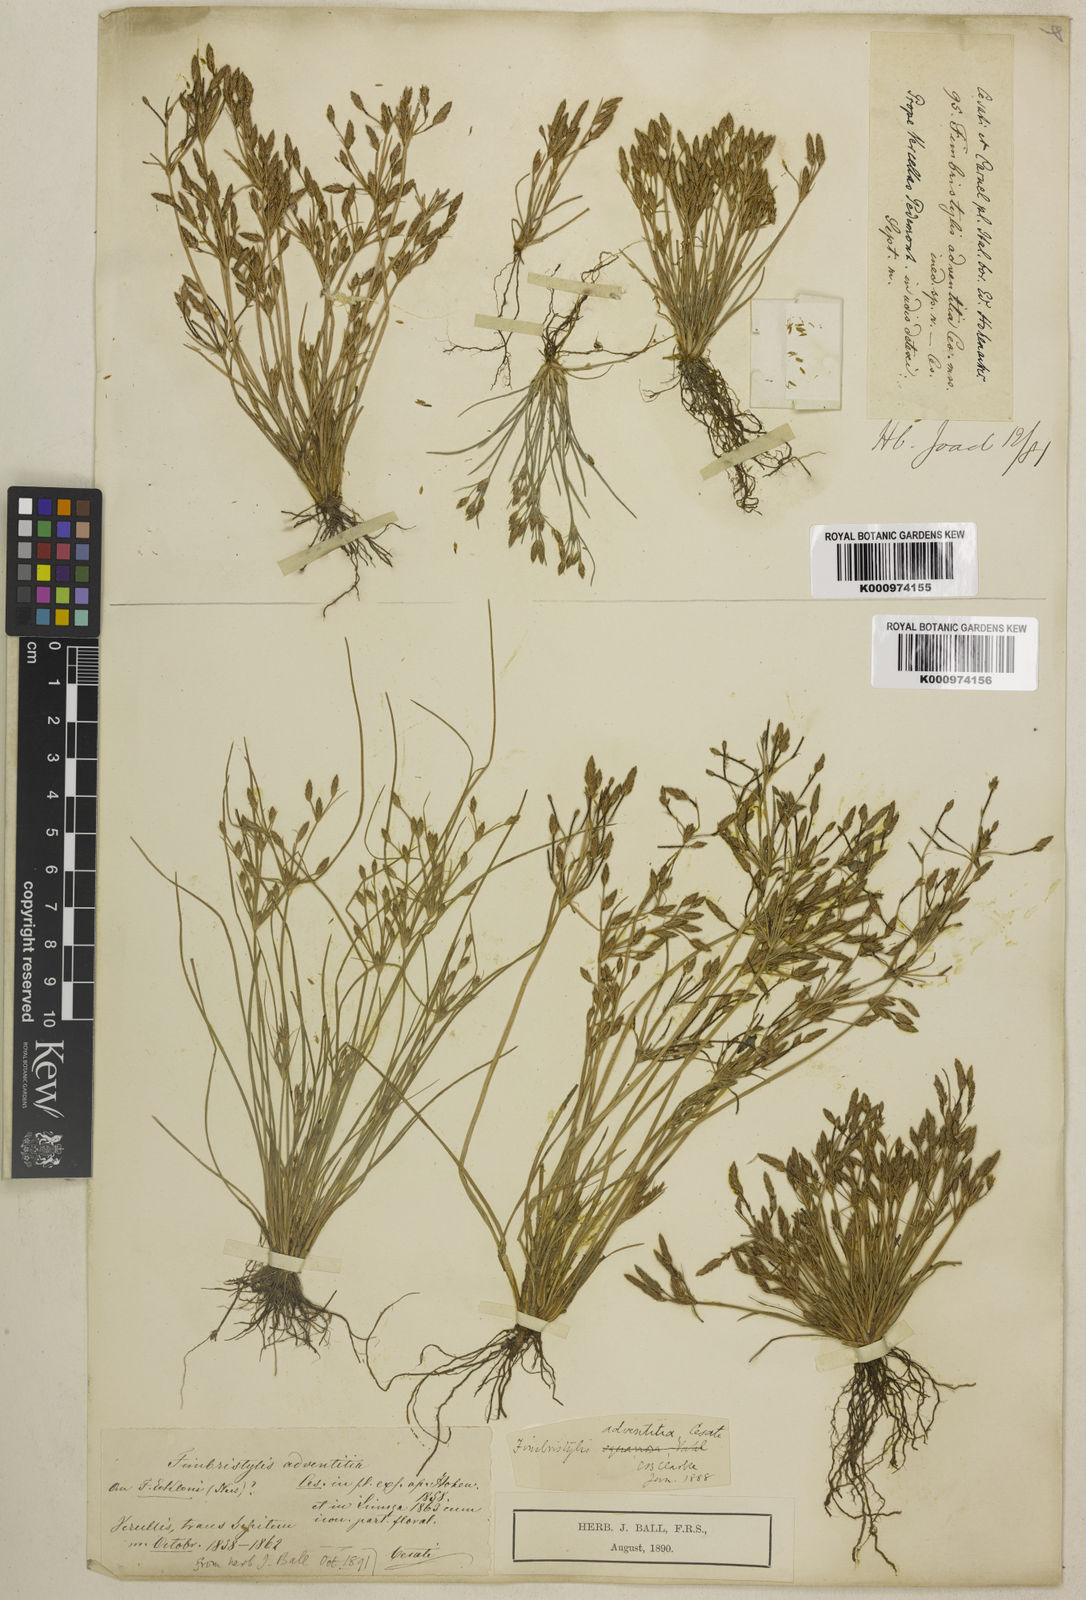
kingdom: Plantae
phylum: Tracheophyta
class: Liliopsida
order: Poales
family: Cyperaceae
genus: Fimbristylis
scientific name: Fimbristylis squarrosa
